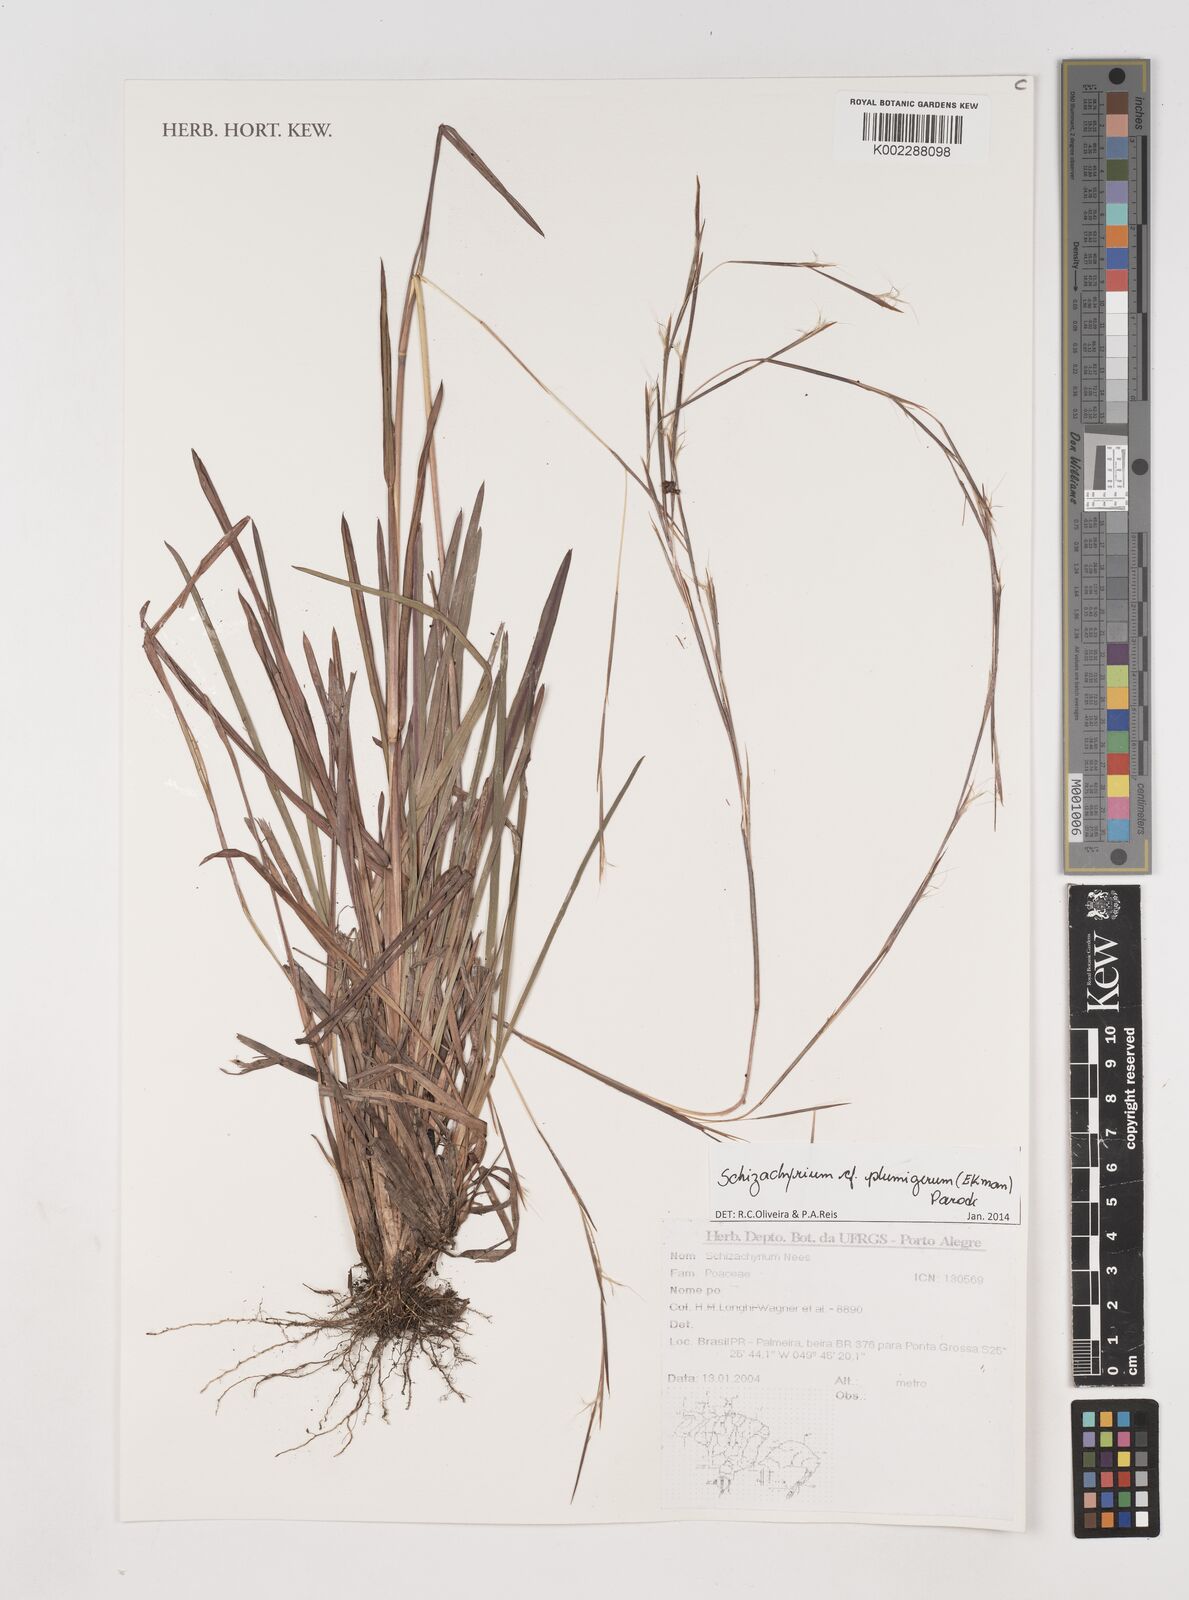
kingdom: Plantae
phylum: Tracheophyta
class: Liliopsida
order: Poales
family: Poaceae
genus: Schizachyrium
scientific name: Schizachyrium condensatum
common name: Bush beardgrass
